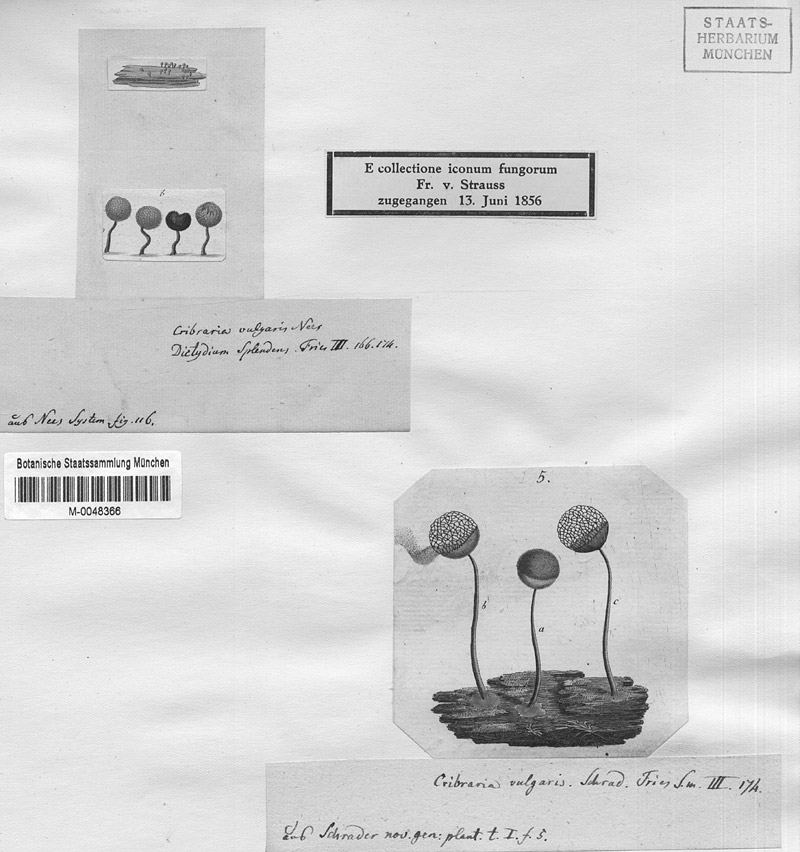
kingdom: Protozoa
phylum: Mycetozoa
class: Myxomycetes
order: Cribrariales
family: Cribrariaceae
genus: Cribraria
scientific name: Cribraria vulgaris
